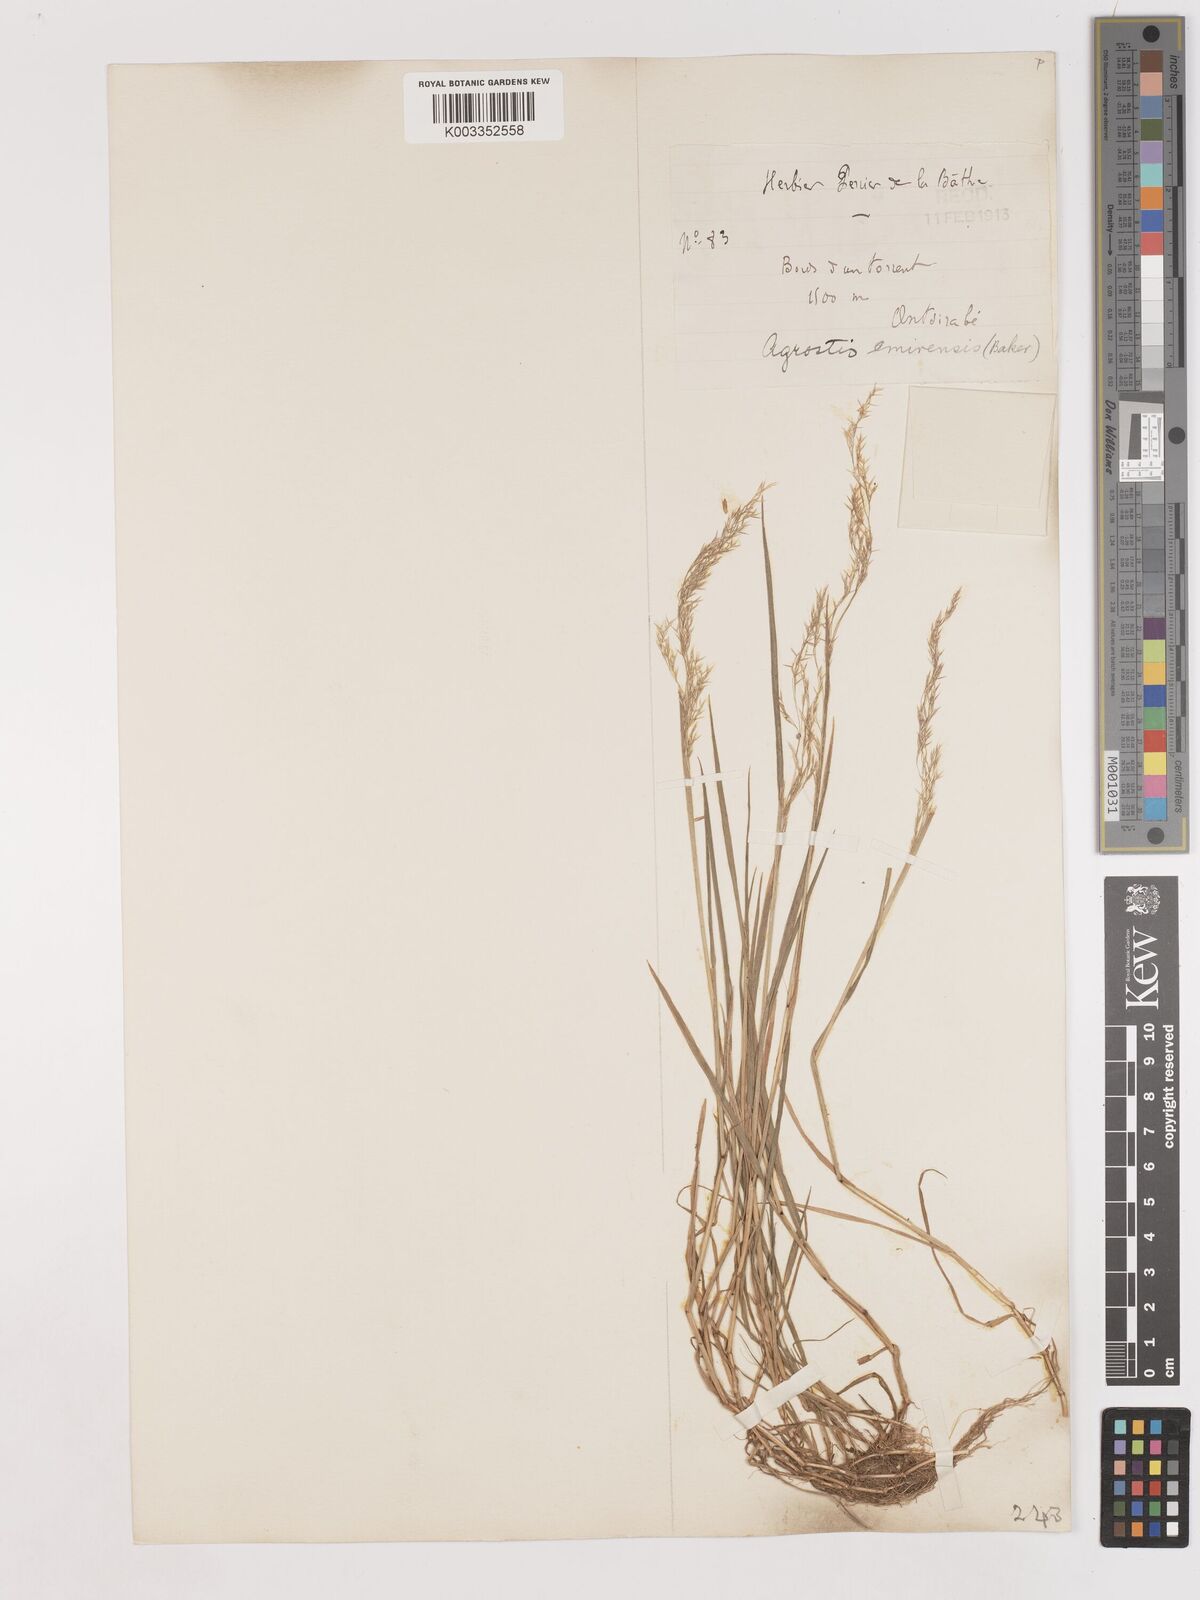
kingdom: Plantae
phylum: Tracheophyta
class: Liliopsida
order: Poales
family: Poaceae
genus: Agrostis
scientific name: Agrostis emirnensis
